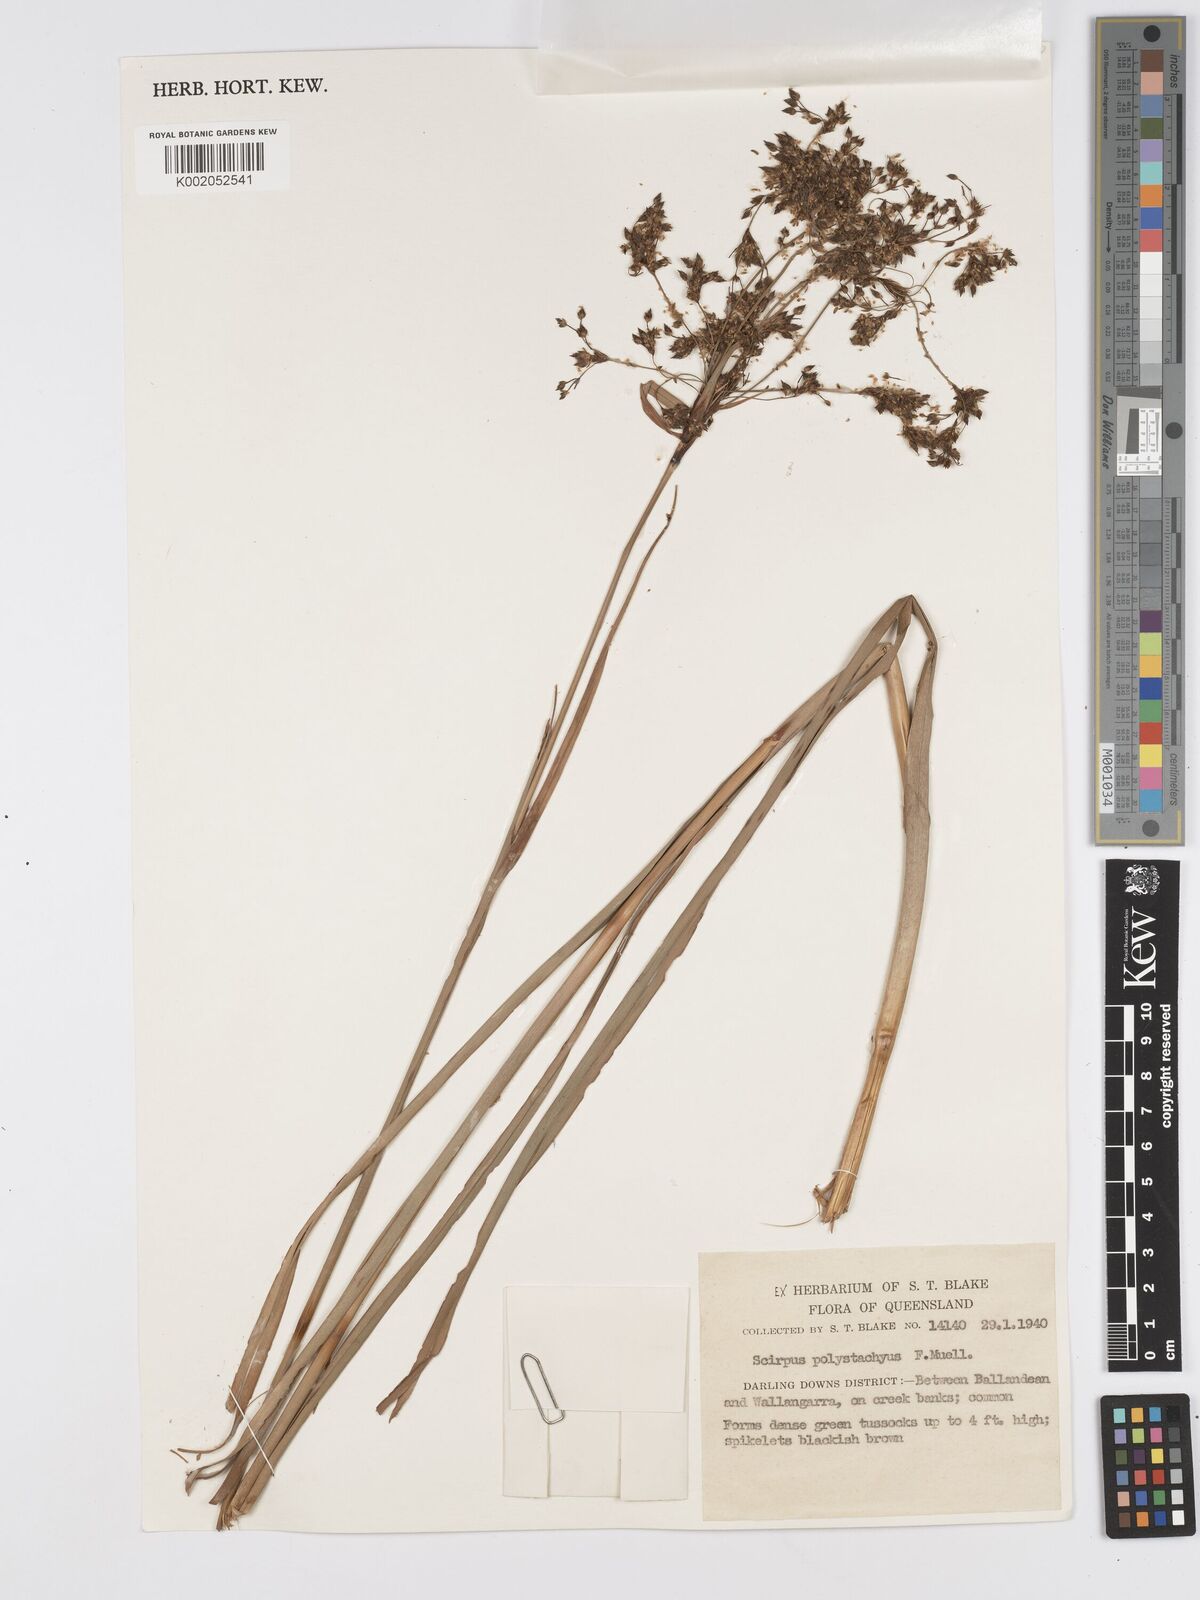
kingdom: Plantae
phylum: Tracheophyta
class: Liliopsida
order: Poales
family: Cyperaceae
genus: Scirpus
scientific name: Scirpus polystachyus
